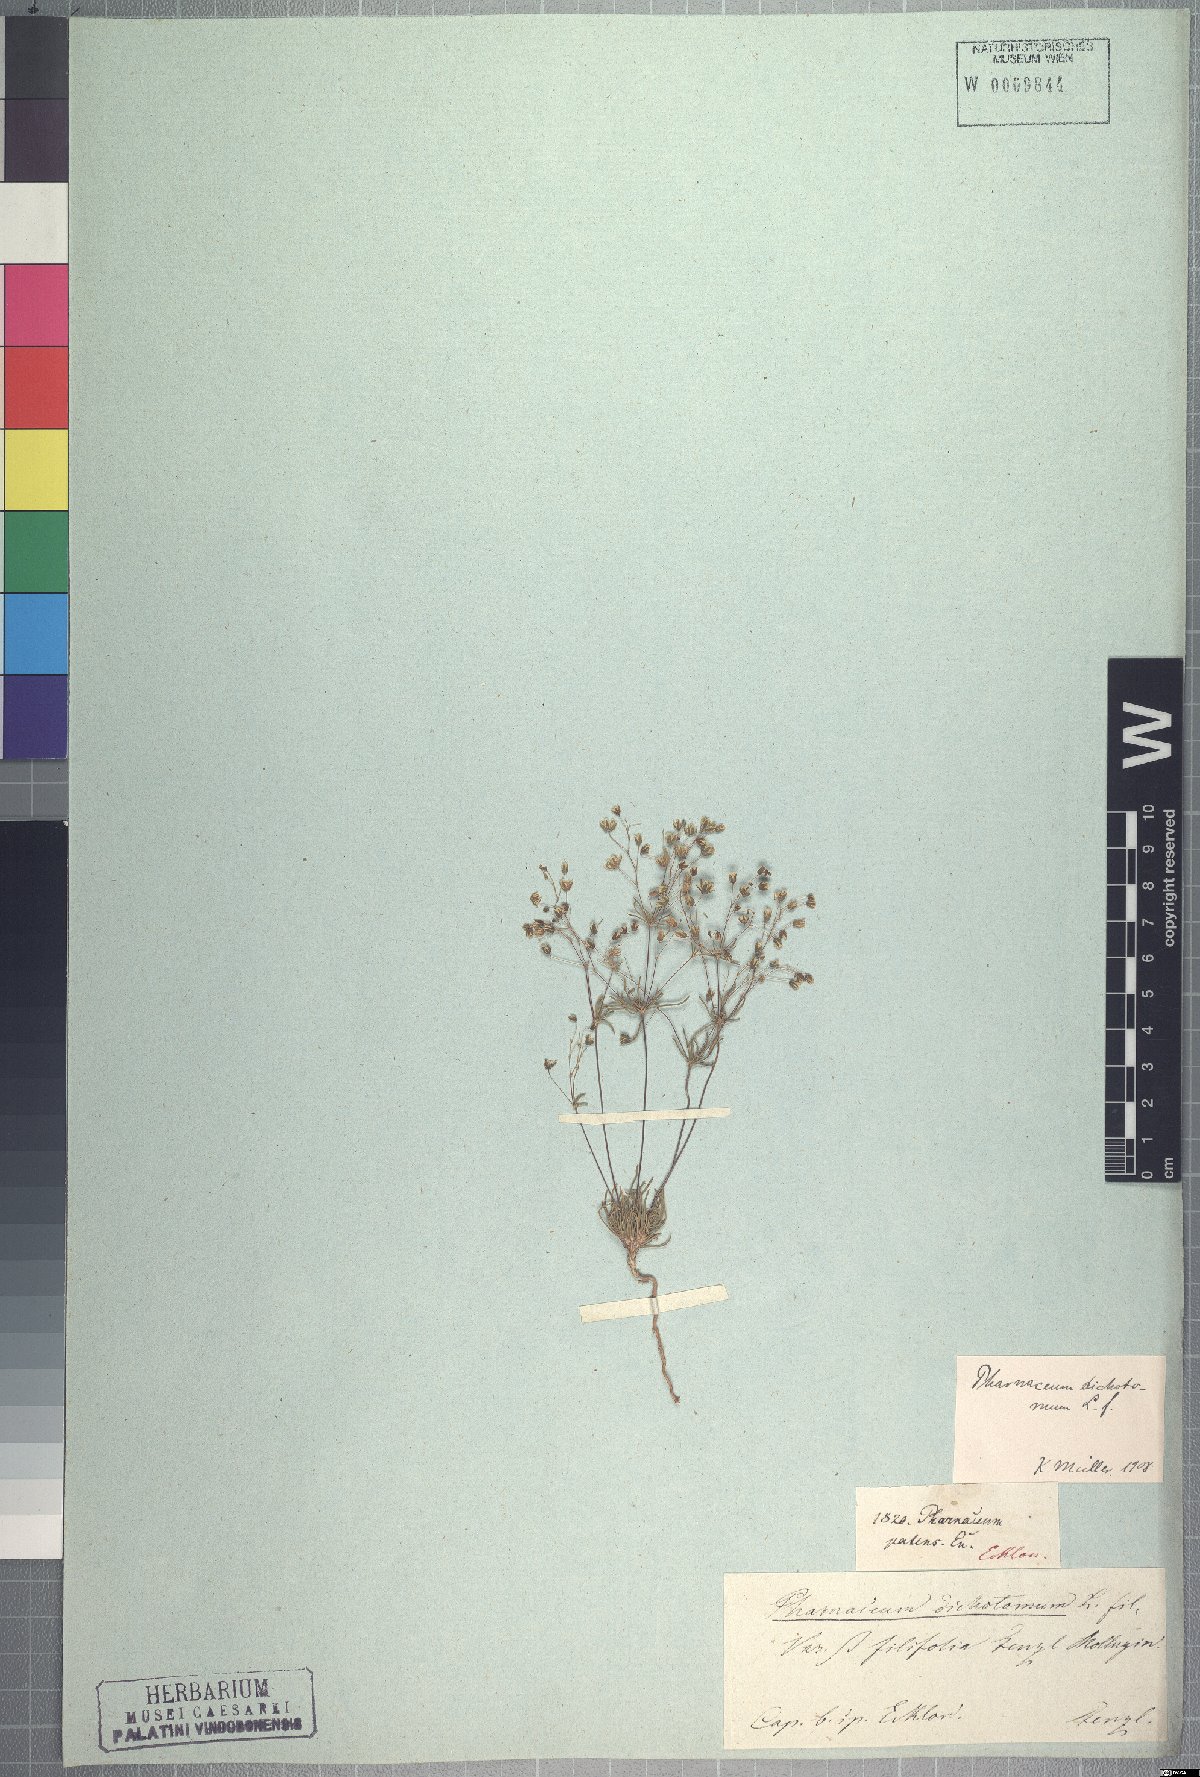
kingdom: Plantae
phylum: Tracheophyta
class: Magnoliopsida
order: Caryophyllales
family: Molluginaceae
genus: Pharnaceum
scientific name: Pharnaceum dichotomum
